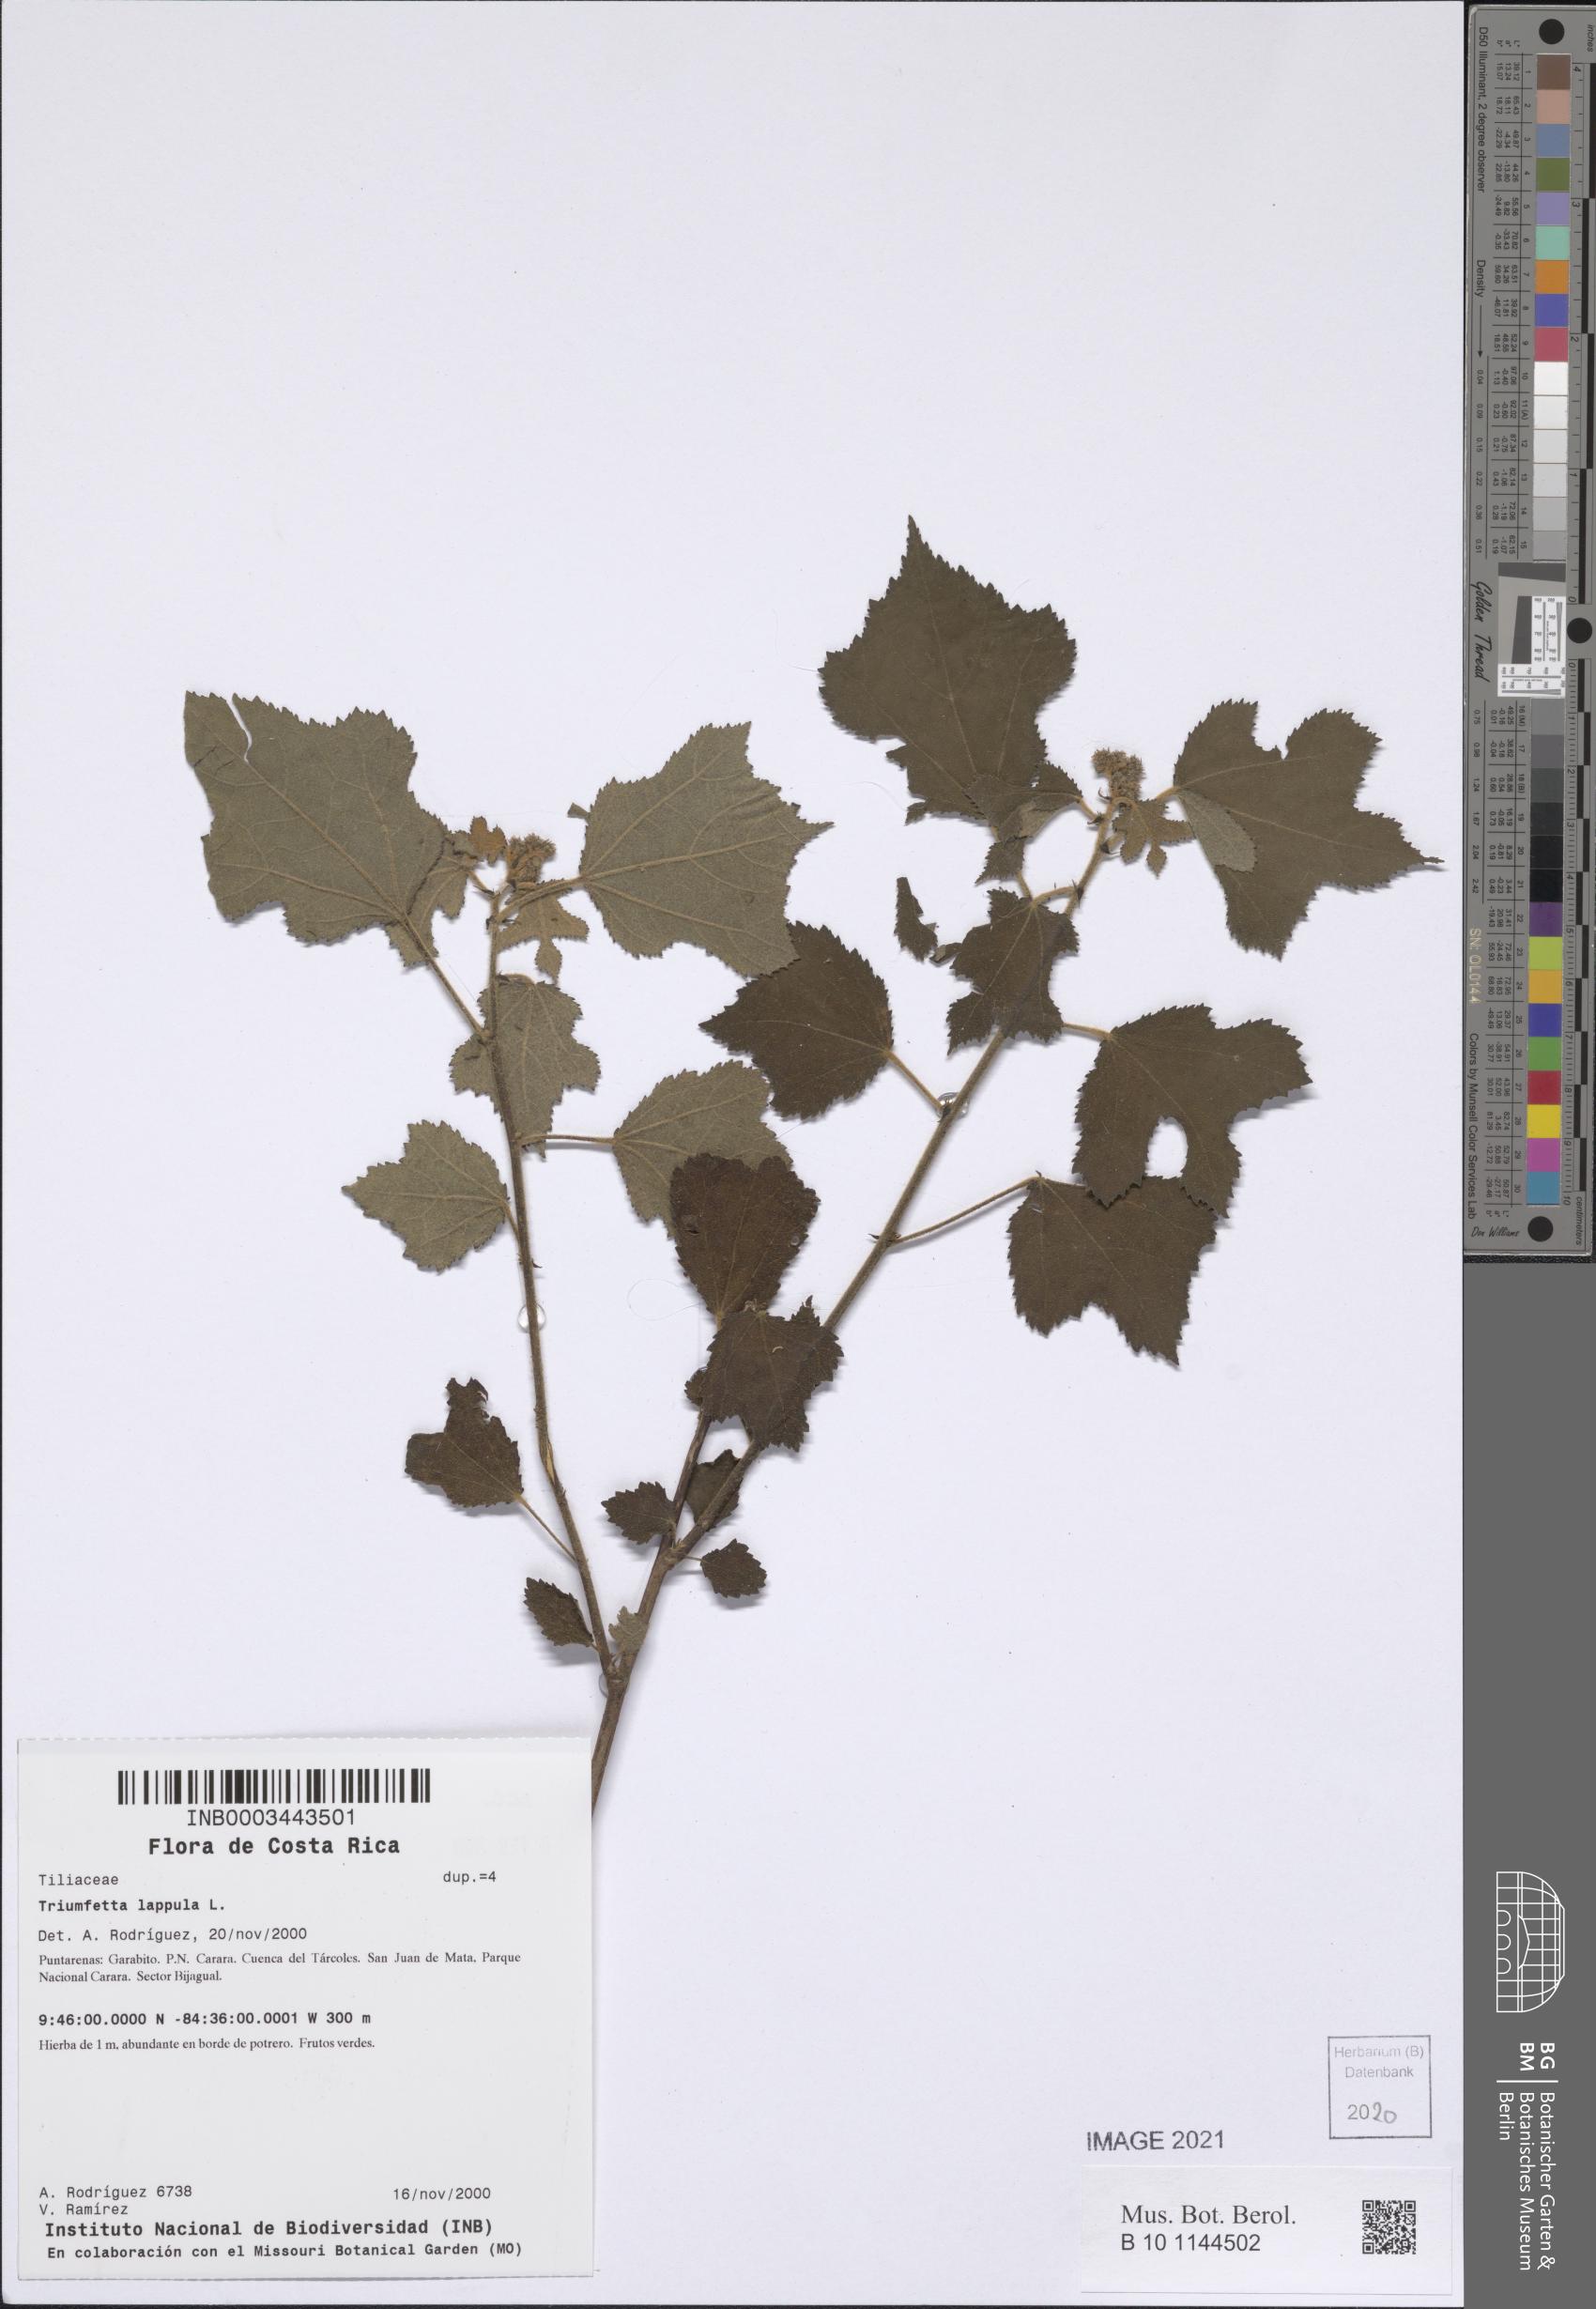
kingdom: Plantae
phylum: Tracheophyta
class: Magnoliopsida
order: Malvales
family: Malvaceae
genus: Triumfetta
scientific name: Triumfetta lappula
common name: Burbark
